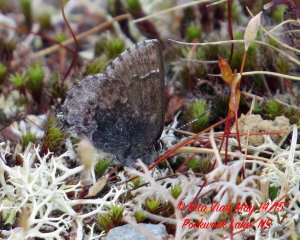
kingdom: Animalia
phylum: Arthropoda
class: Insecta
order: Lepidoptera
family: Lycaenidae
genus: Callophrys
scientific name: Callophrys polios
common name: Hoary Elfin
